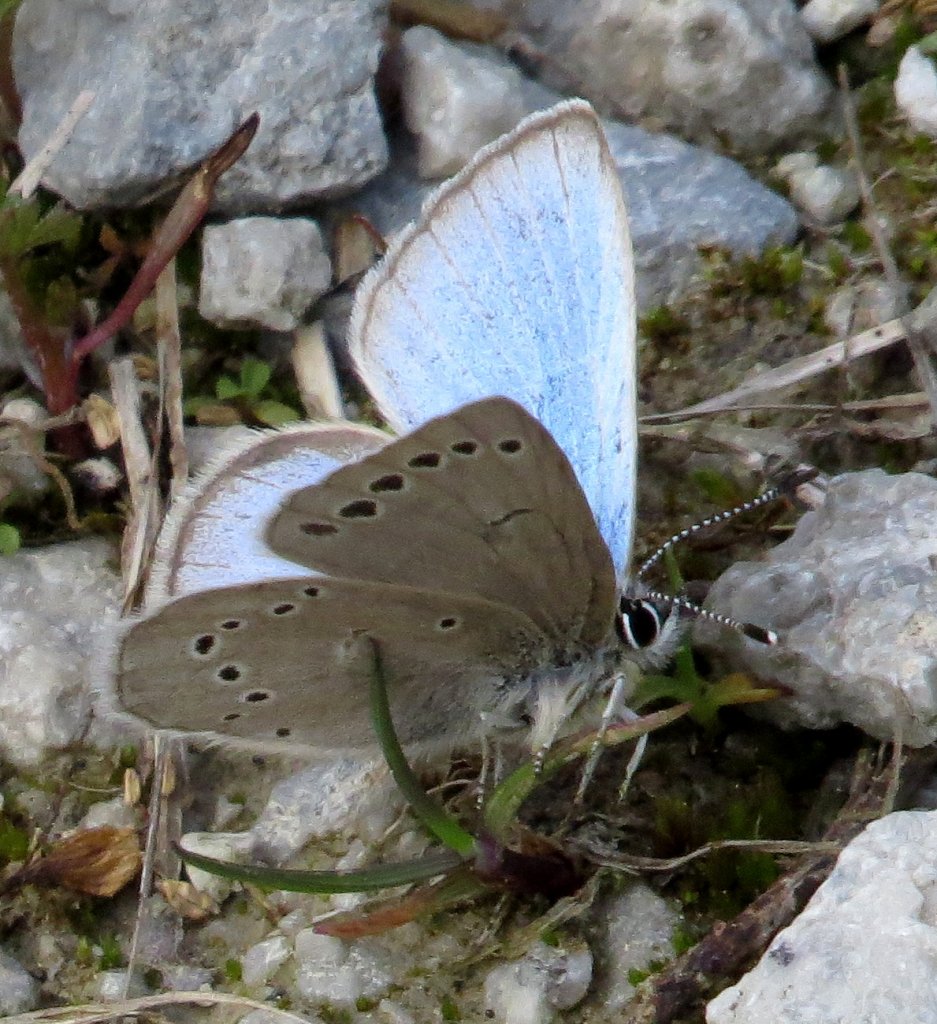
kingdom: Animalia
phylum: Arthropoda
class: Insecta
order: Lepidoptera
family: Lycaenidae
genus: Glaucopsyche
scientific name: Glaucopsyche lygdamus
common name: Silvery Blue
